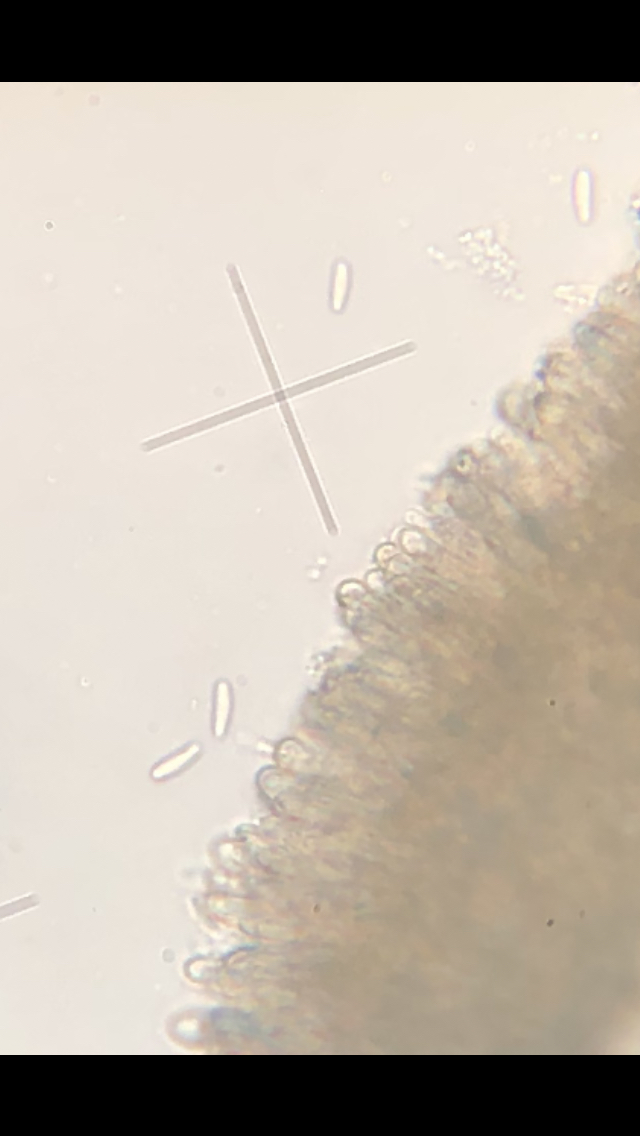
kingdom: Fungi
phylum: Ascomycota
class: Leotiomycetes
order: Helotiales
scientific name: Helotiales
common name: stilkskiveordenen
